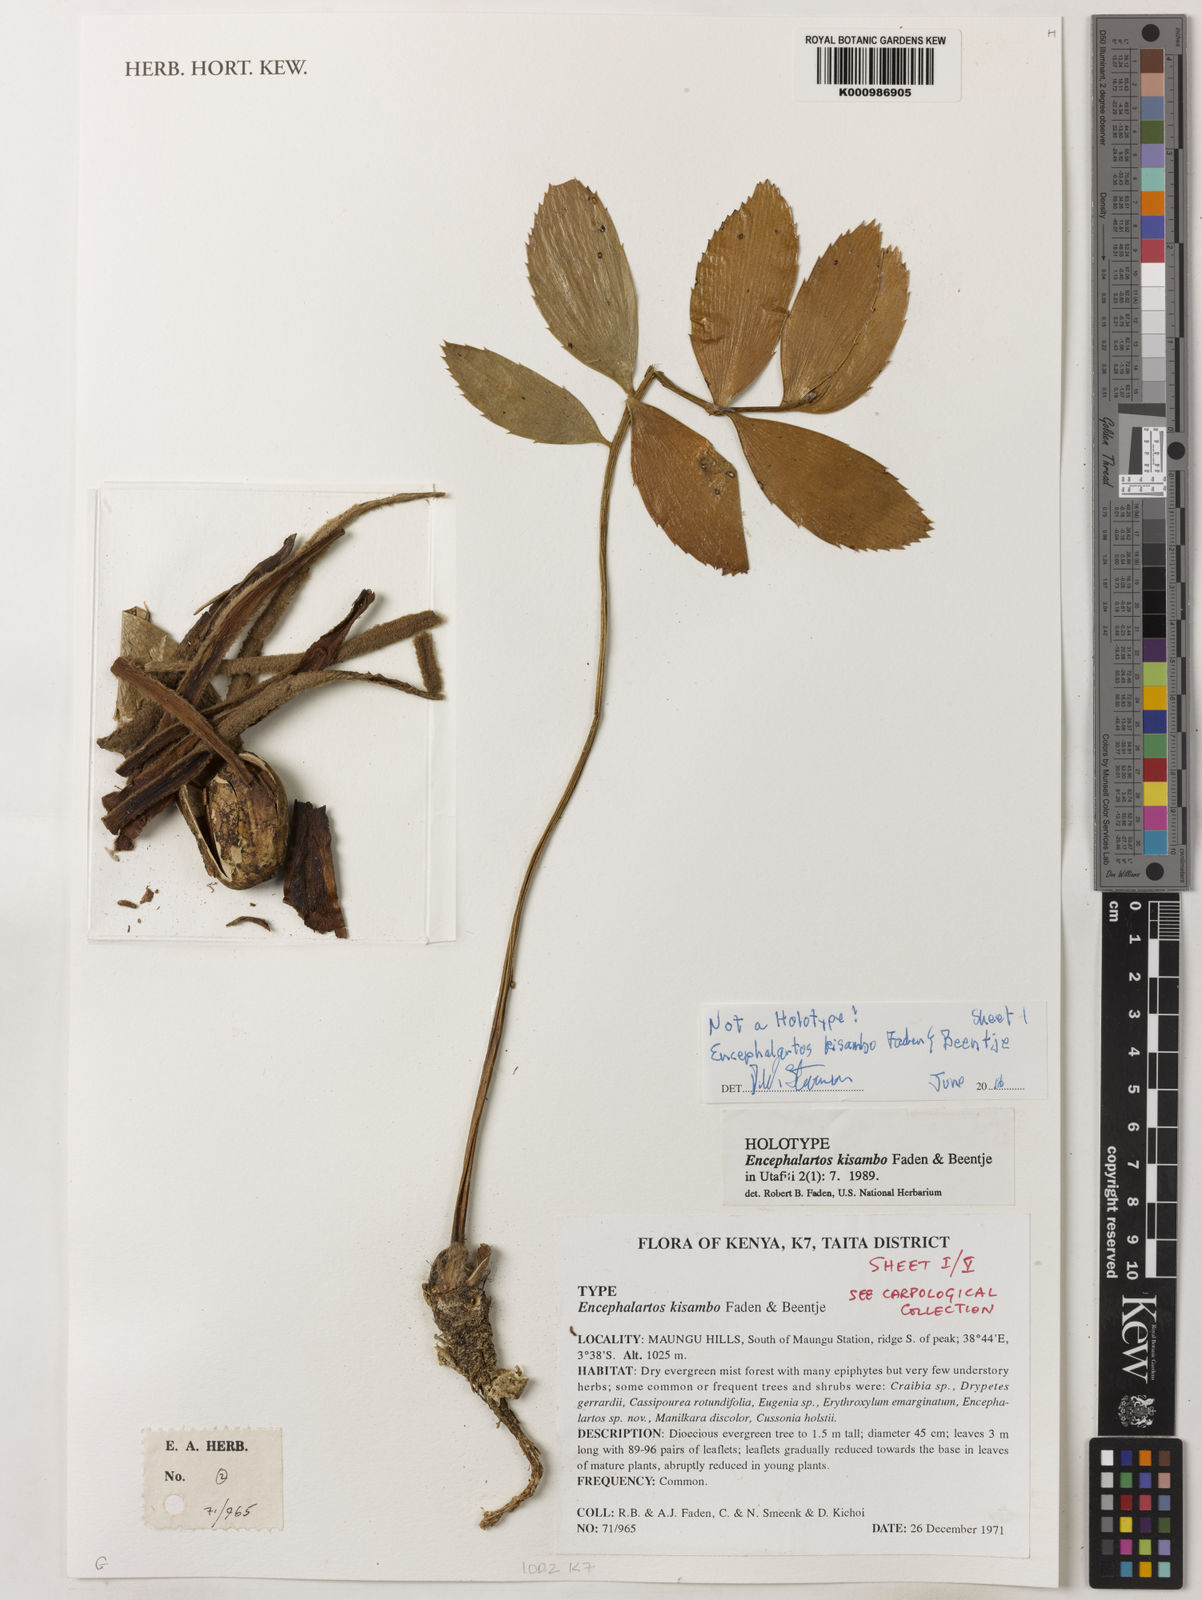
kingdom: Plantae
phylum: Tracheophyta
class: Cycadopsida
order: Cycadales
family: Zamiaceae
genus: Encephalartos
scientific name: Encephalartos kisambo
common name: Voi cycad
